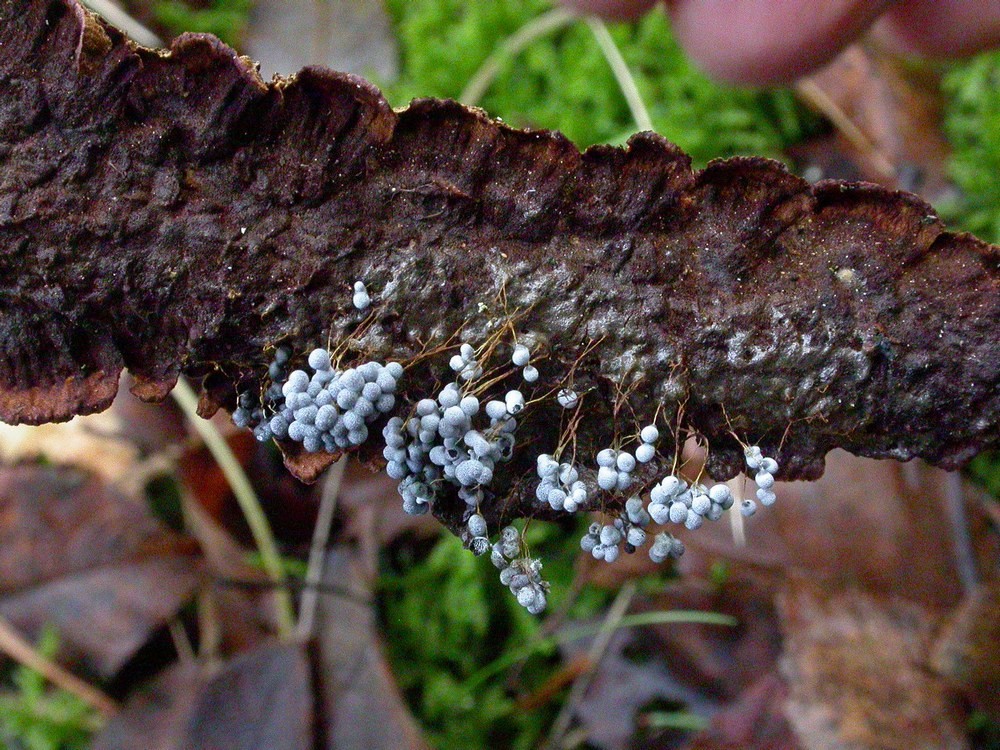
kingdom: Protozoa
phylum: Mycetozoa
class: Myxomycetes
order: Physarales
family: Physaraceae
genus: Badhamia
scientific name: Badhamia utricularis
